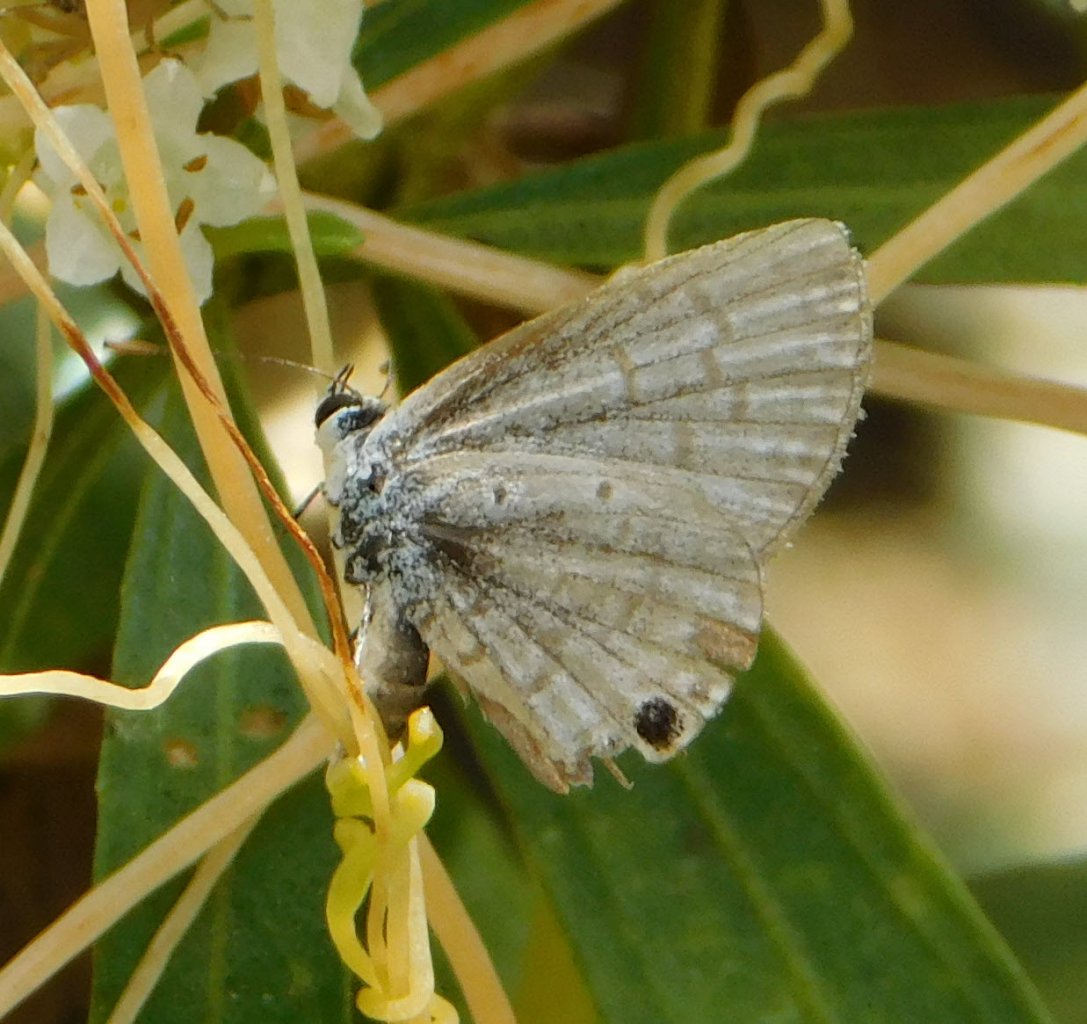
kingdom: Animalia
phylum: Arthropoda
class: Insecta
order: Lepidoptera
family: Lycaenidae
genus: Hemiargus
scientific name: Hemiargus ceraunus
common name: Ceraunus Blue
